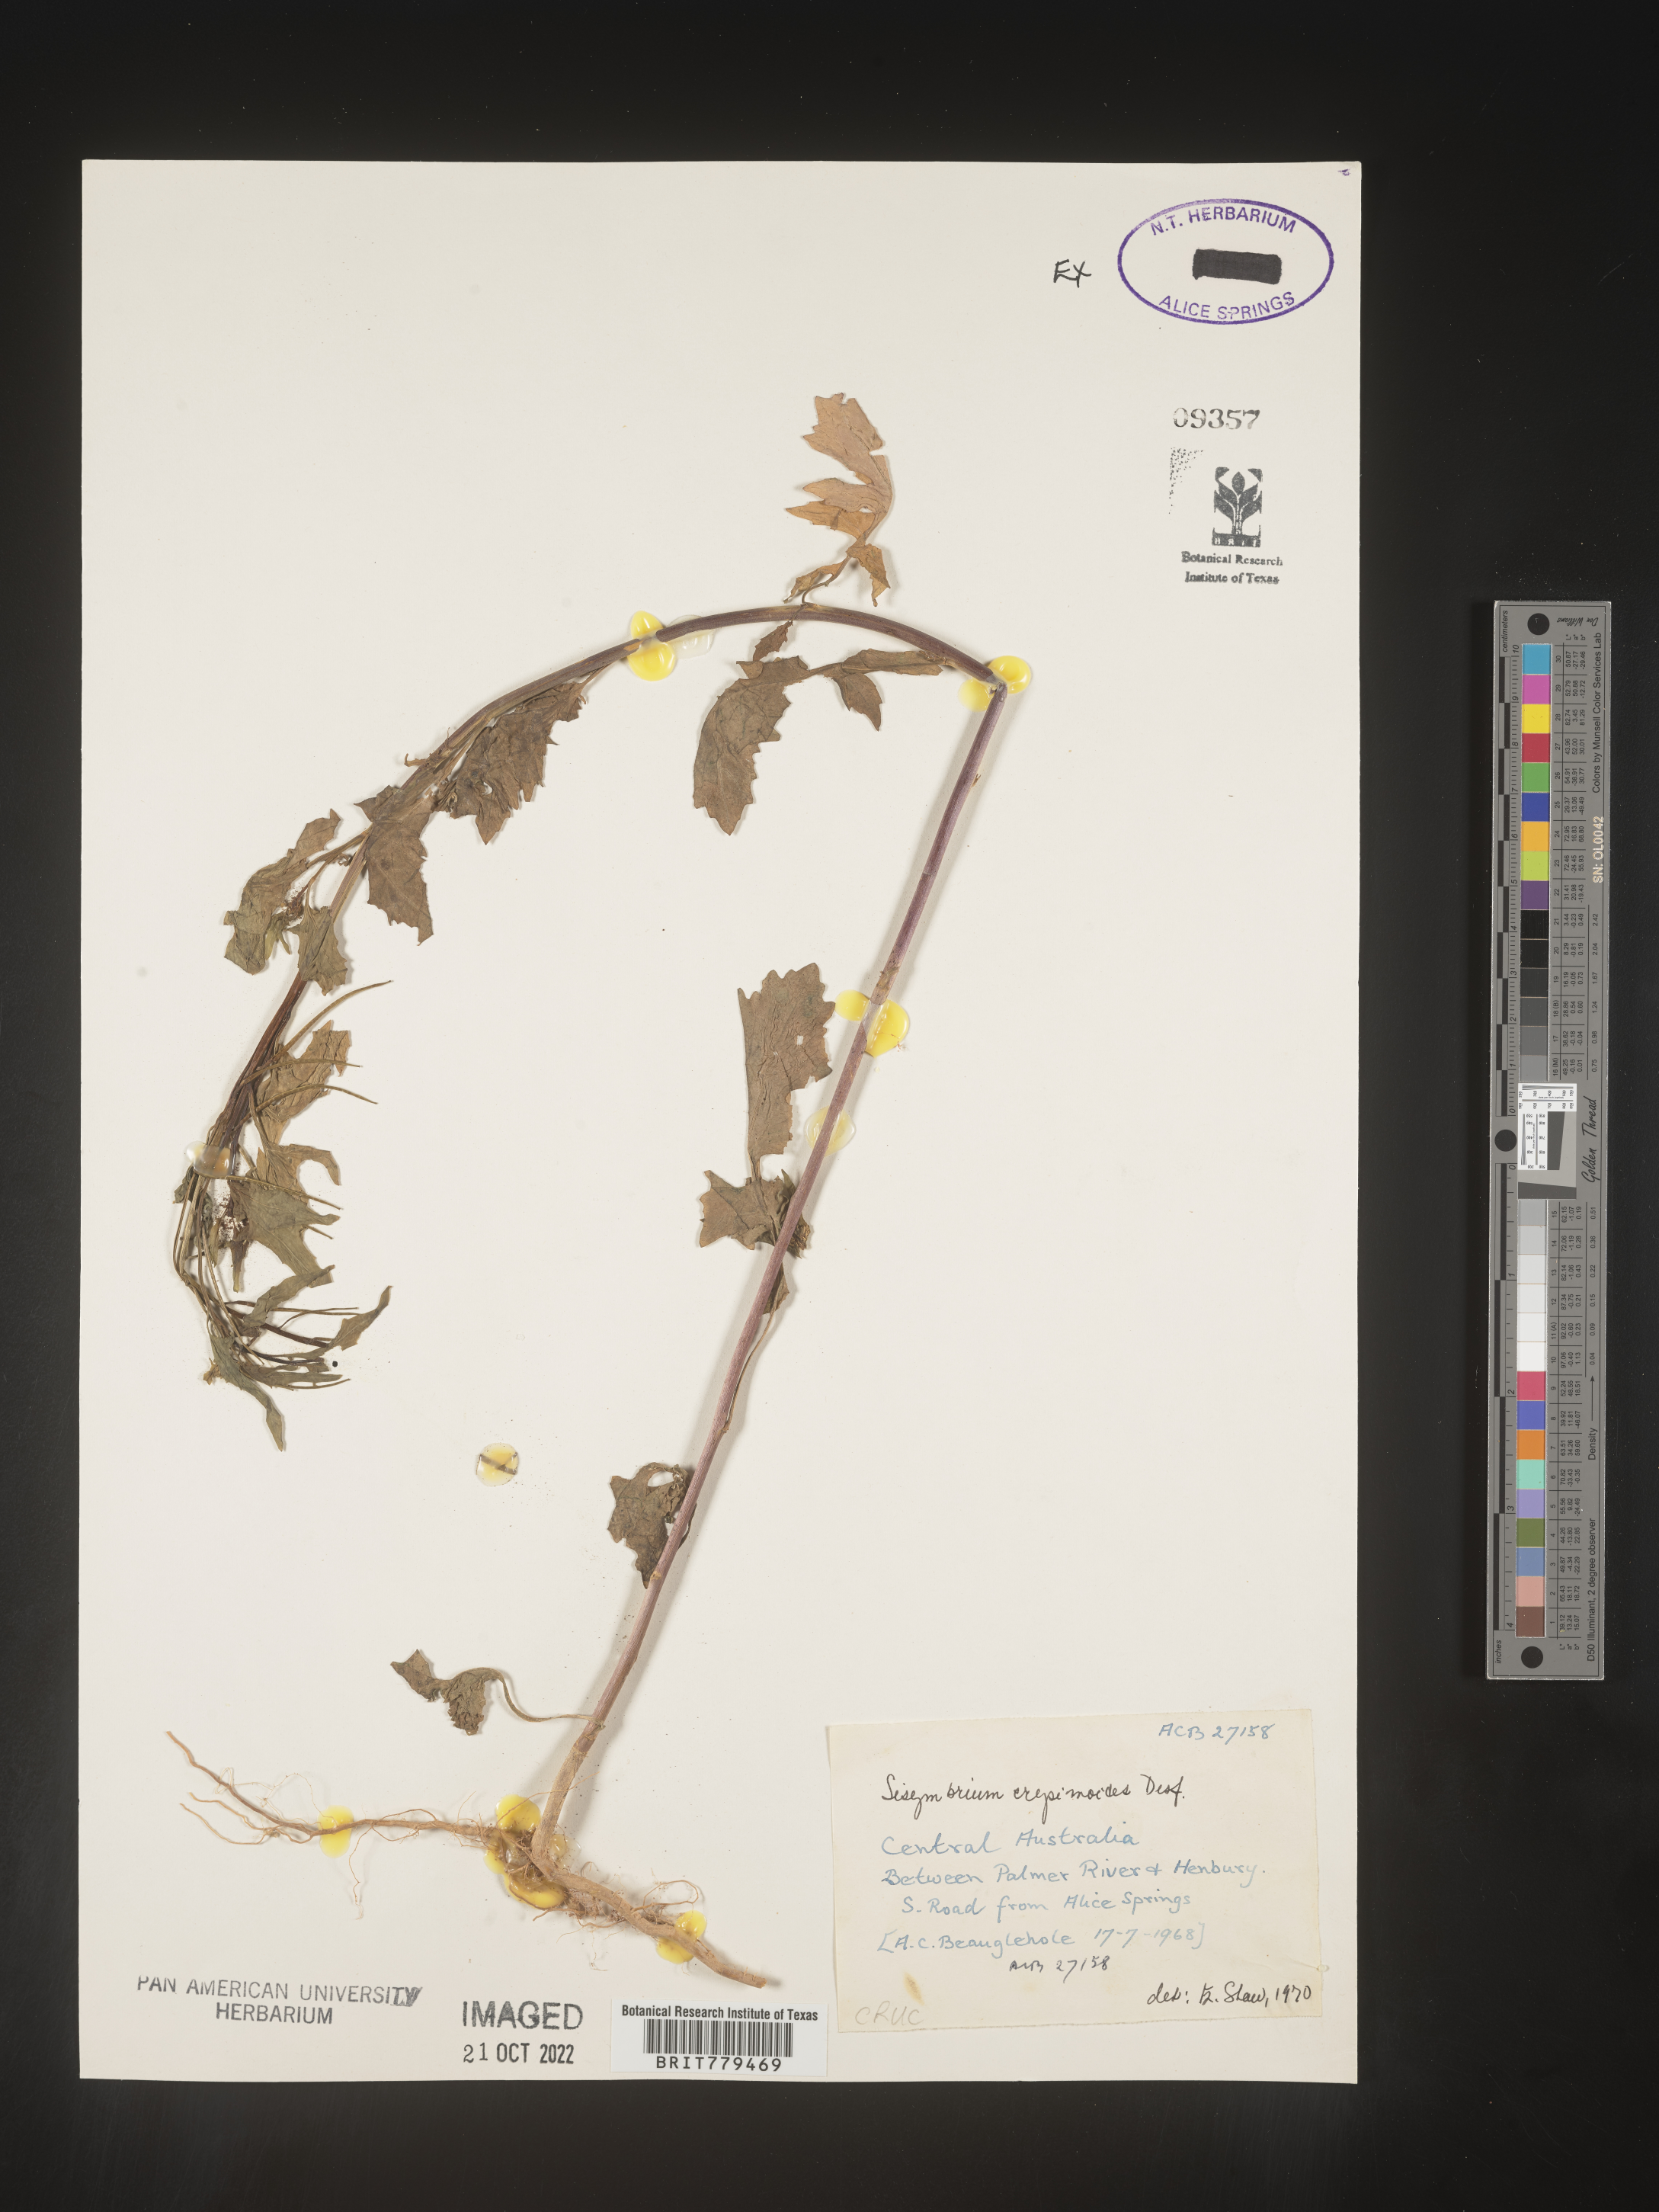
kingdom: Plantae
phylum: Tracheophyta
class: Magnoliopsida
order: Brassicales
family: Brassicaceae
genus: Sisymbrium
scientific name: Sisymbrium
